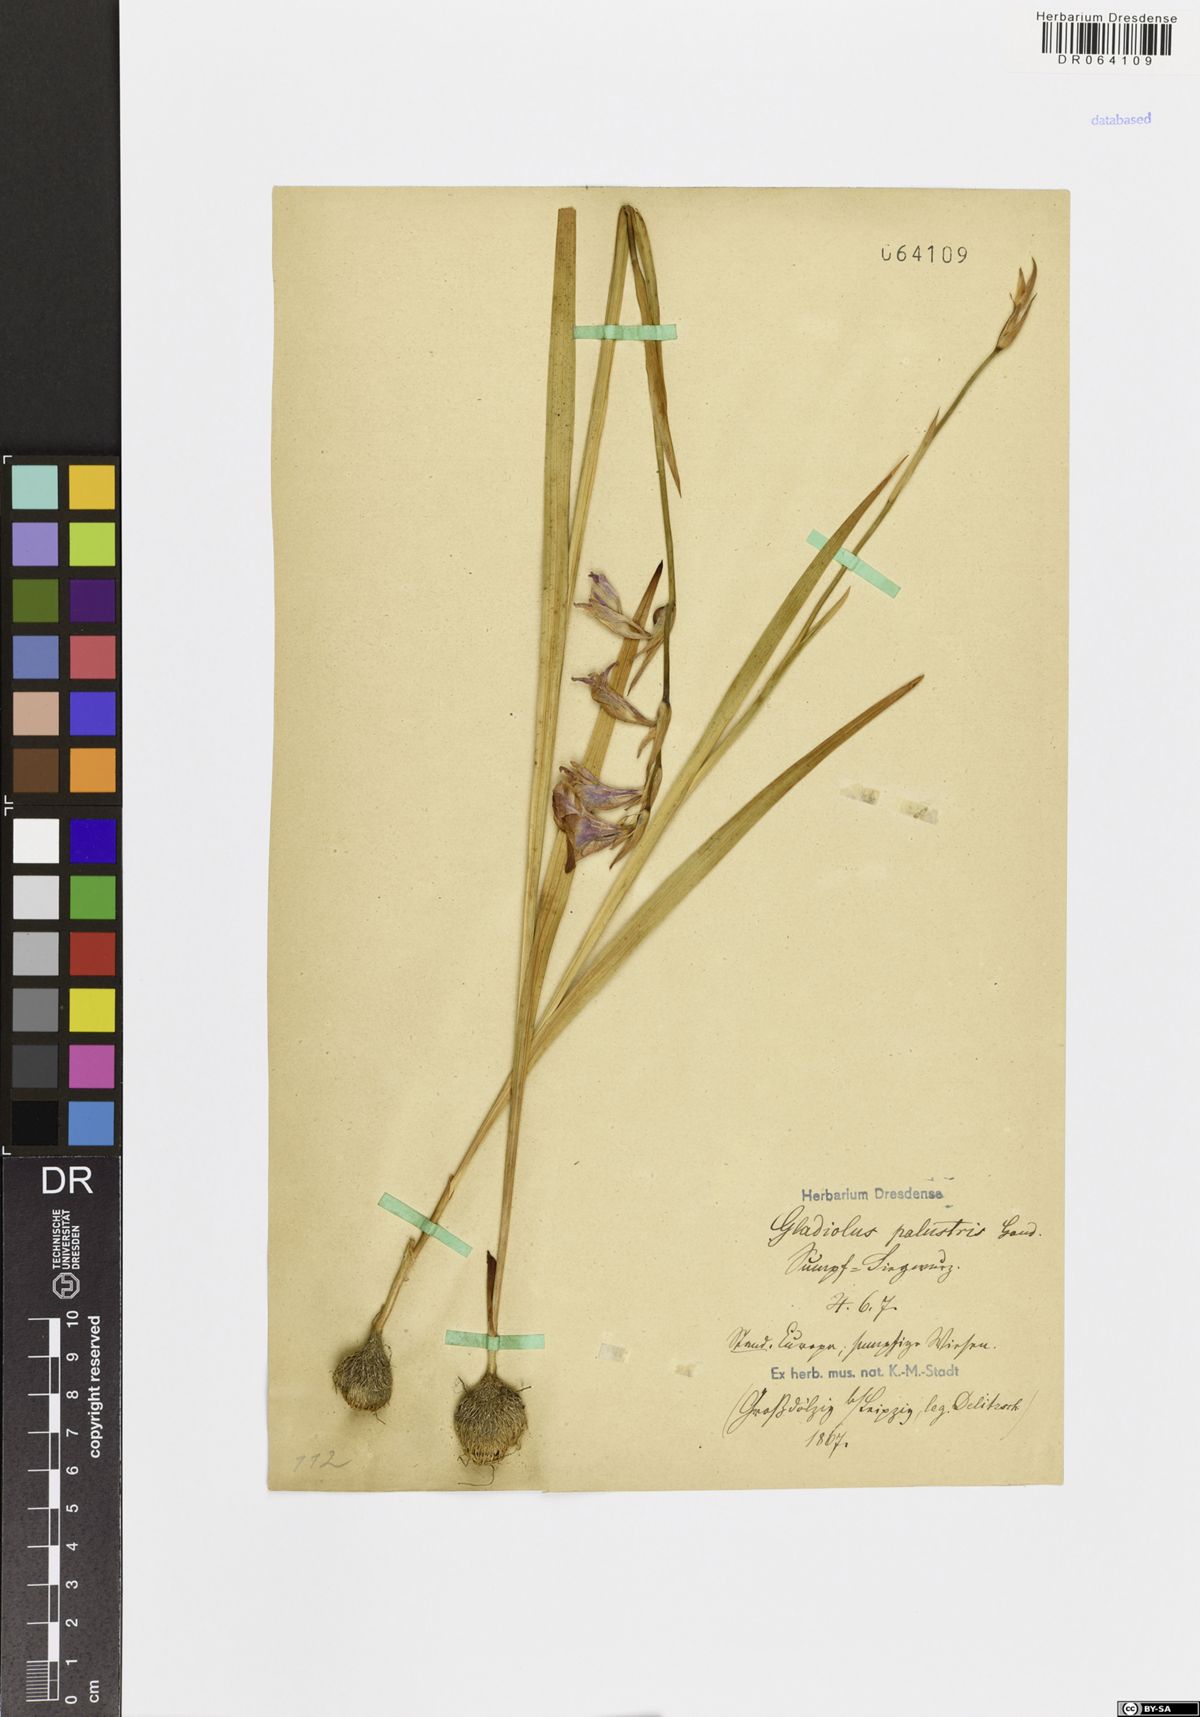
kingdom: Plantae
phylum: Tracheophyta
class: Liliopsida
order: Asparagales
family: Iridaceae
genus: Gladiolus
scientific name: Gladiolus palustris
